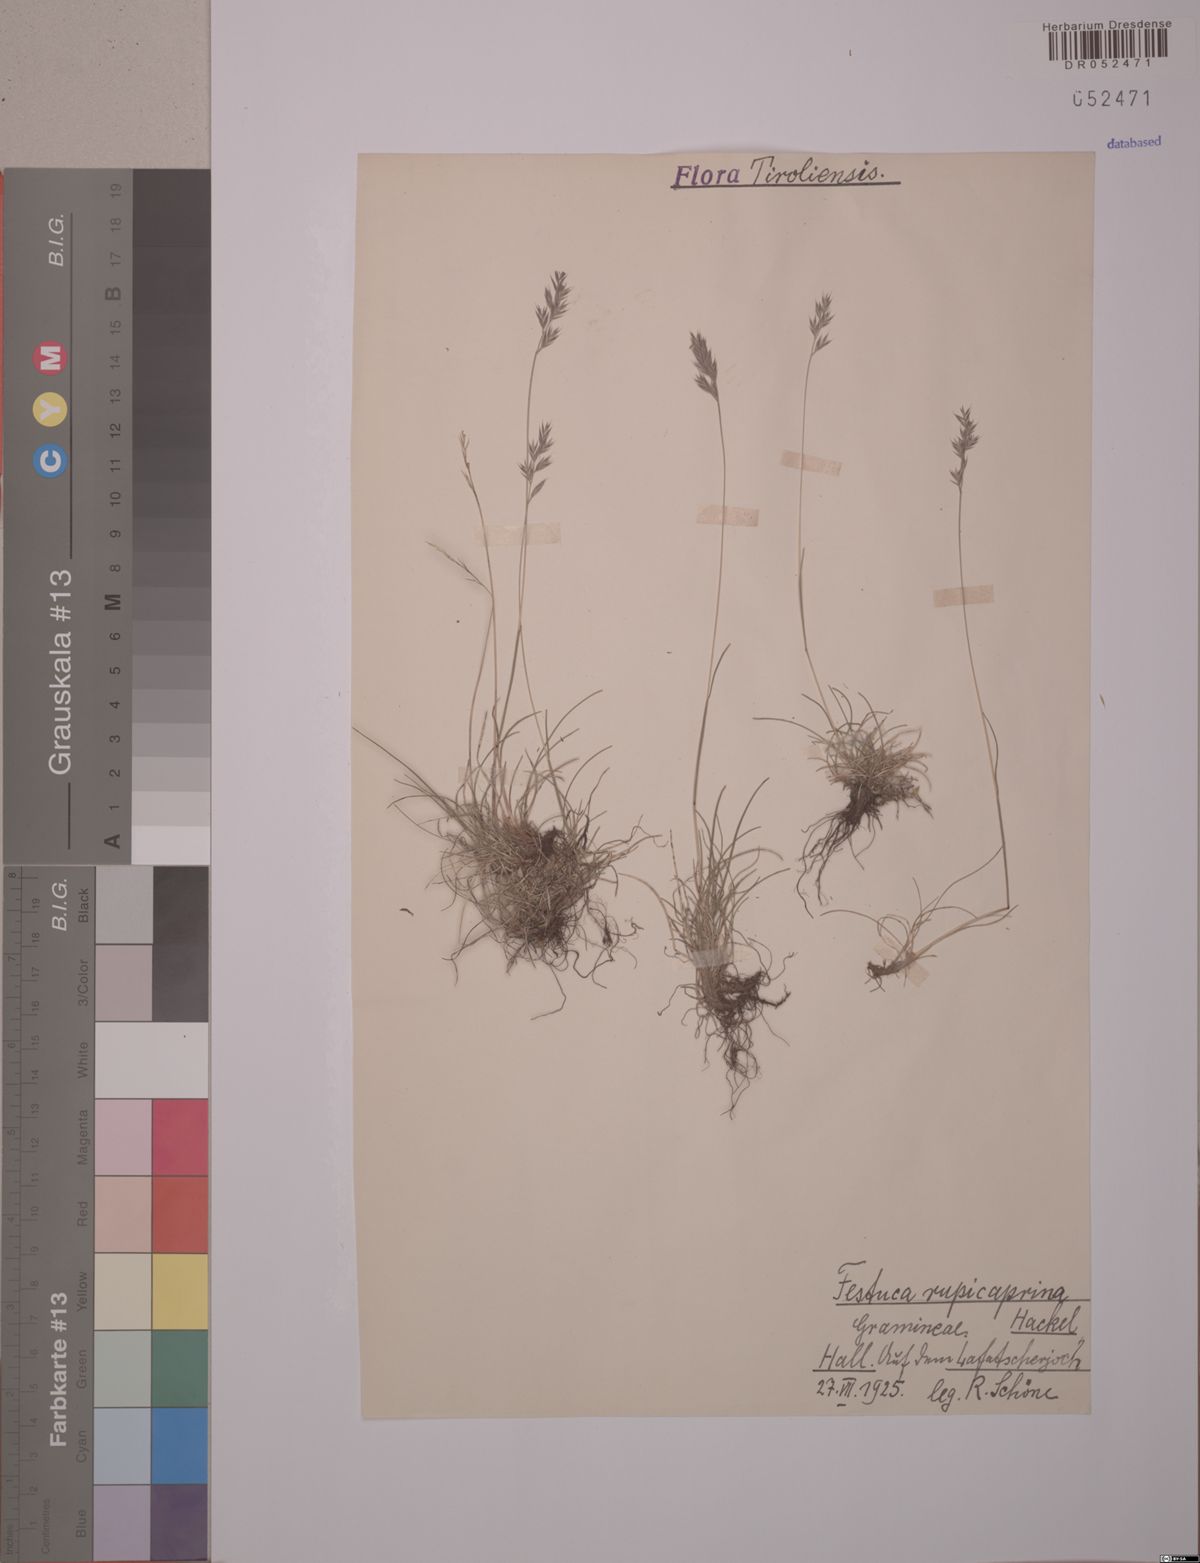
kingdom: Plantae
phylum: Tracheophyta
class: Liliopsida
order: Poales
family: Poaceae
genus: Festuca
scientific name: Festuca rupicaprina
